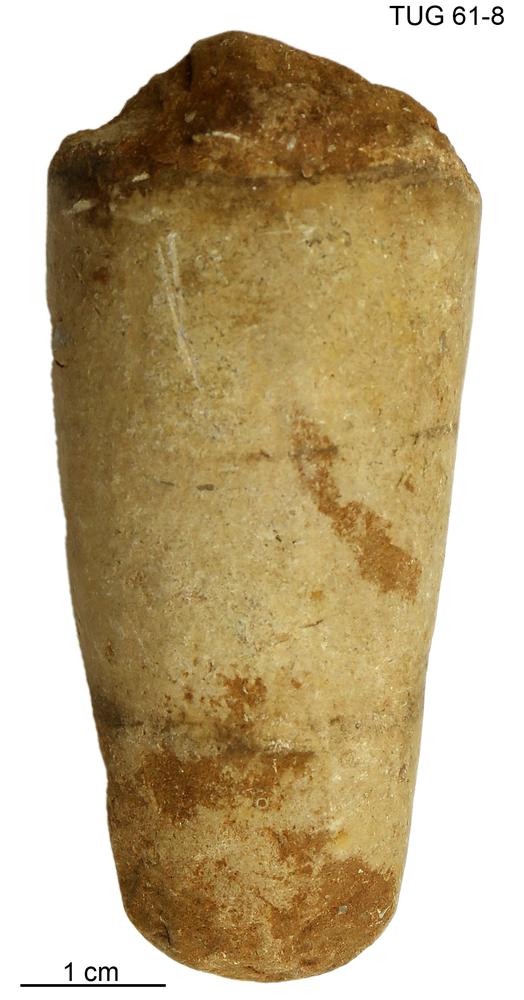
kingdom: Animalia
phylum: Mollusca
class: Cephalopoda
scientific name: Cephalopoda
